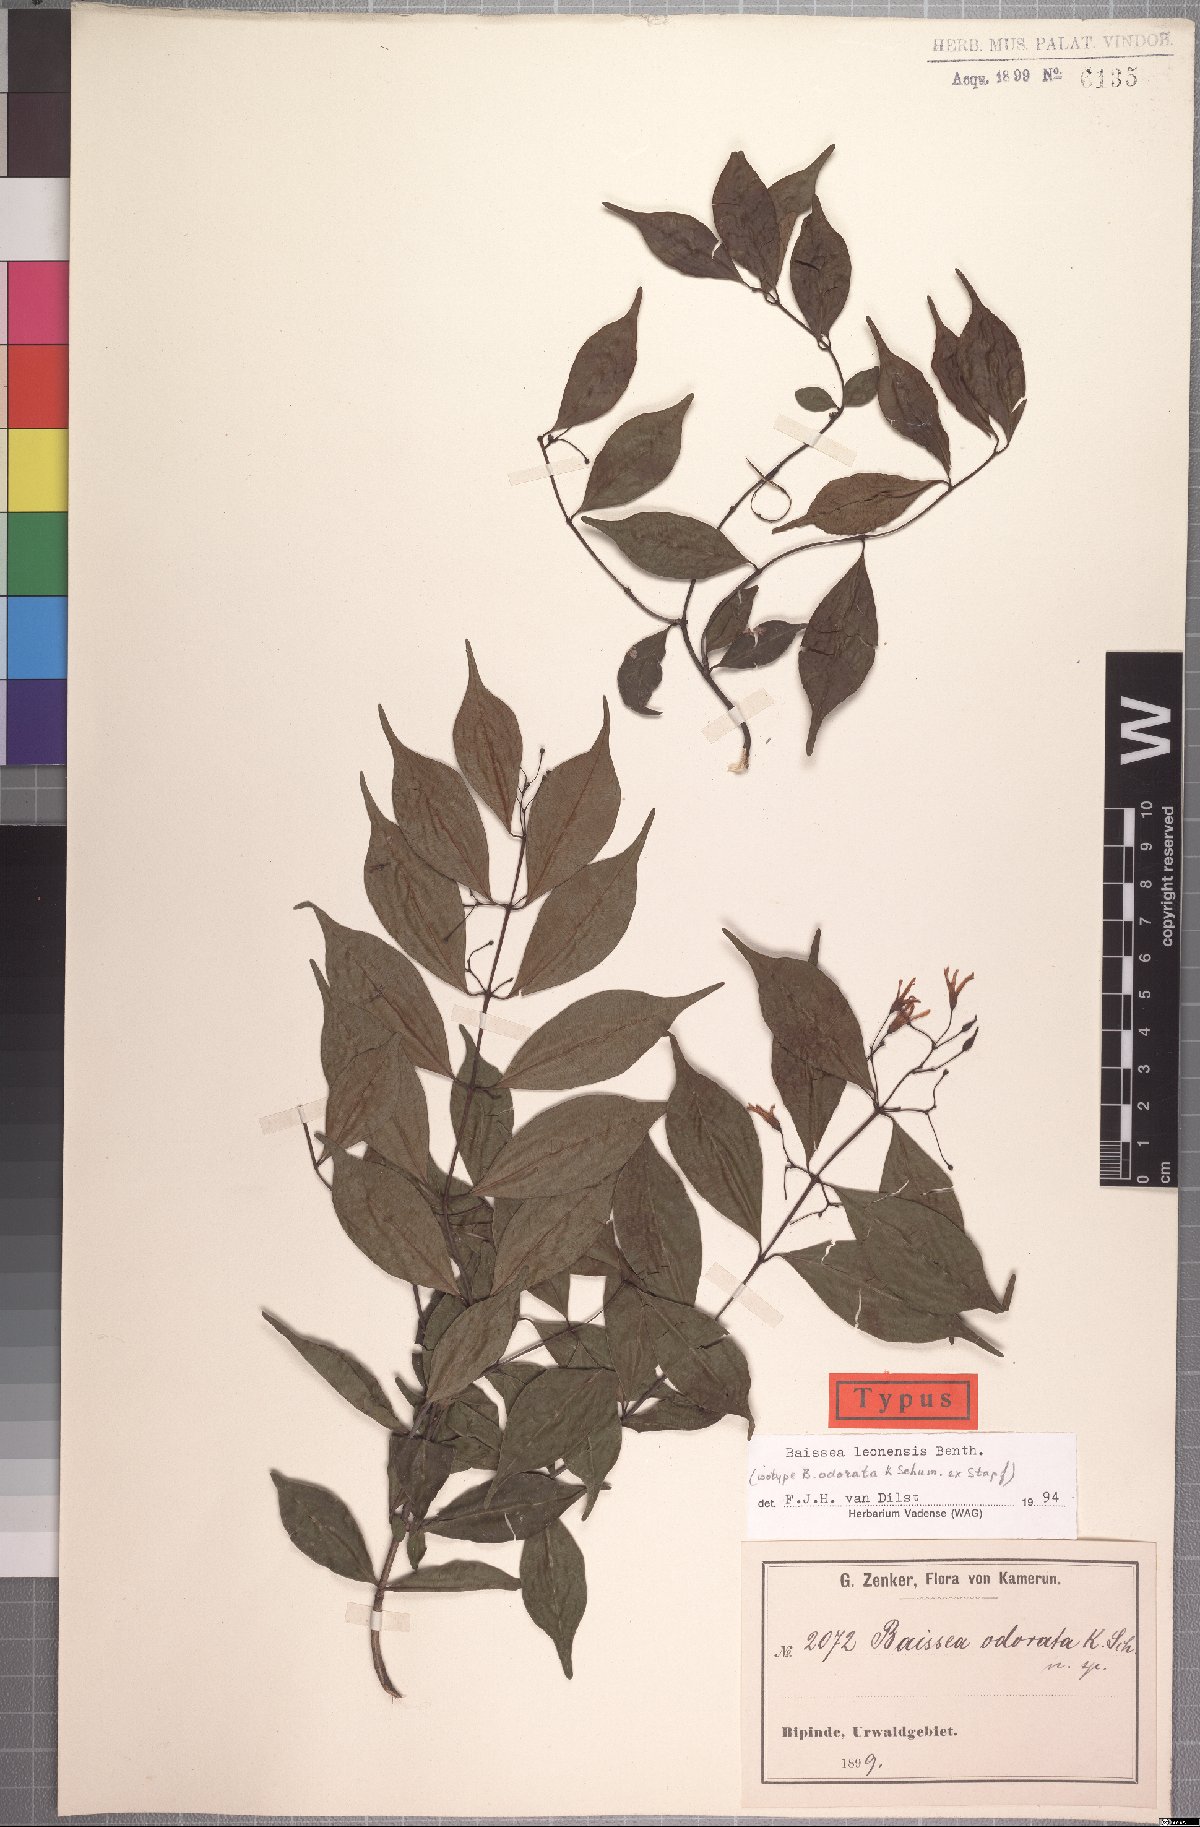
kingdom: Plantae
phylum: Tracheophyta
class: Magnoliopsida
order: Gentianales
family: Apocynaceae
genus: Baissea
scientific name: Baissea leonensis
